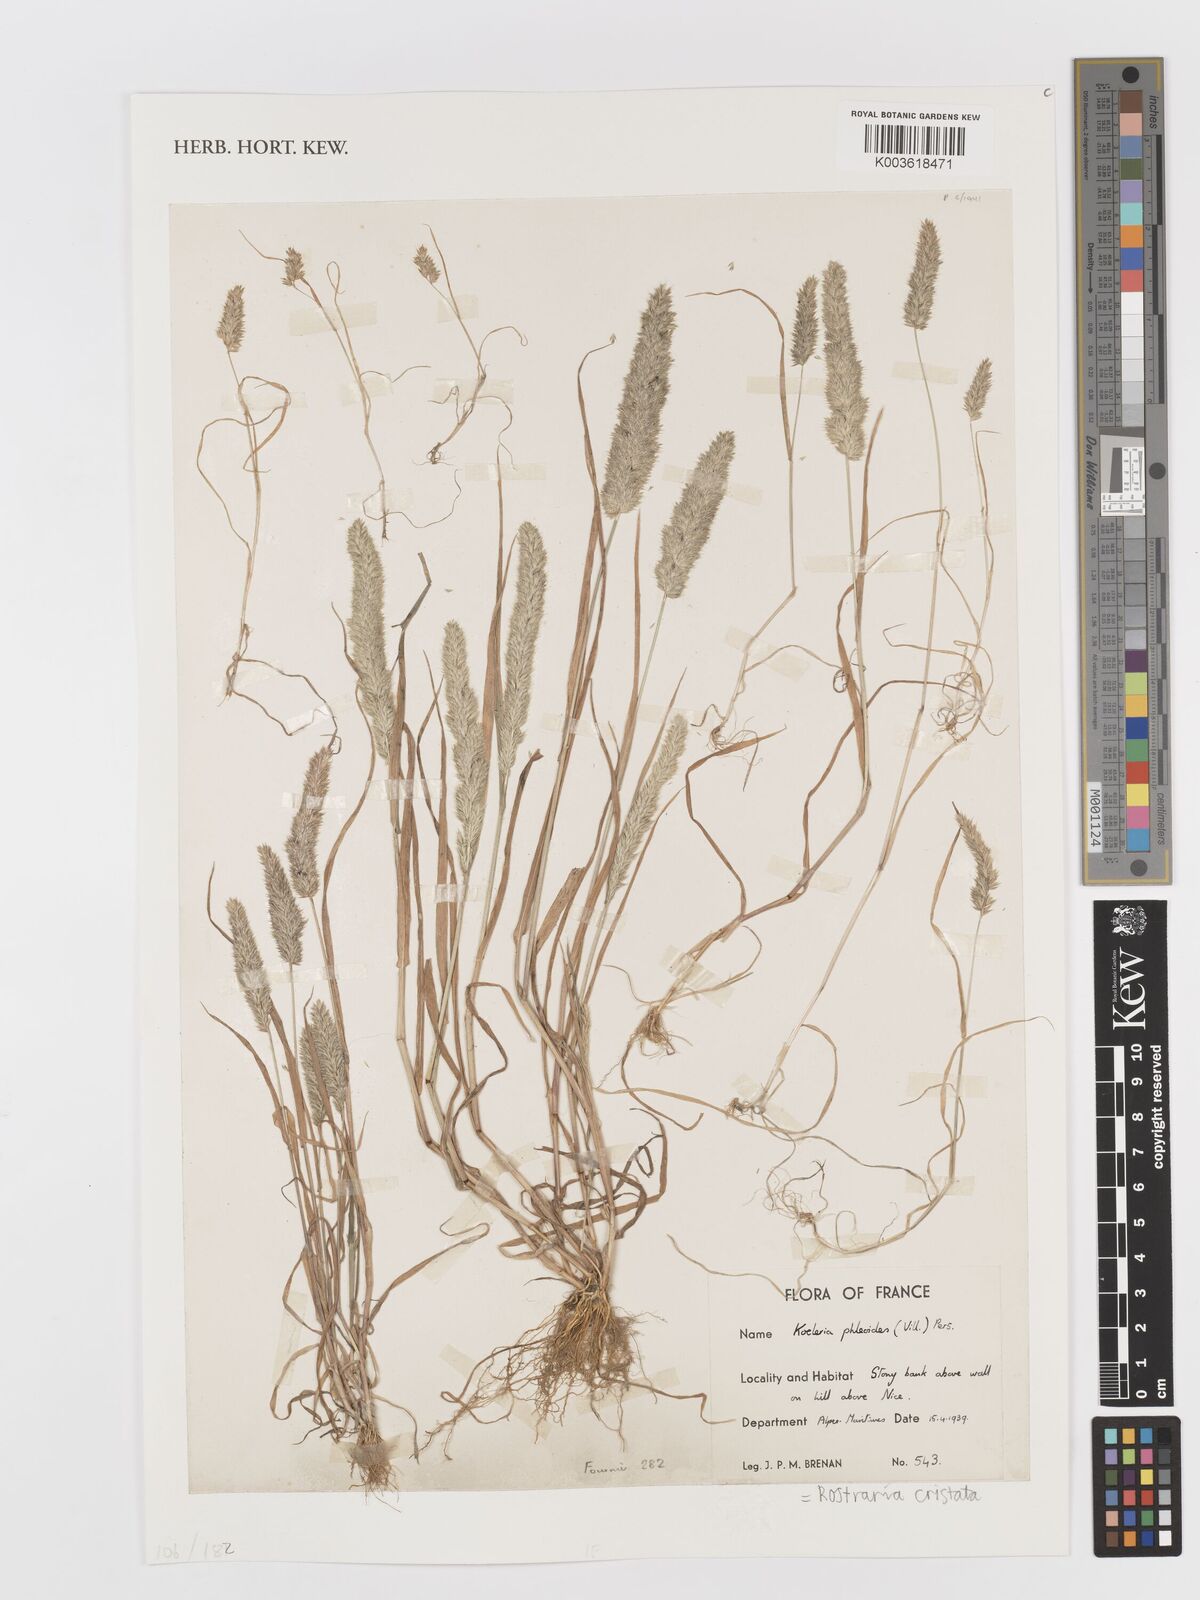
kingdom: Plantae
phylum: Tracheophyta
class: Liliopsida
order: Poales
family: Poaceae
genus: Rostraria
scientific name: Rostraria cristata
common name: Mediterranean hair-grass
